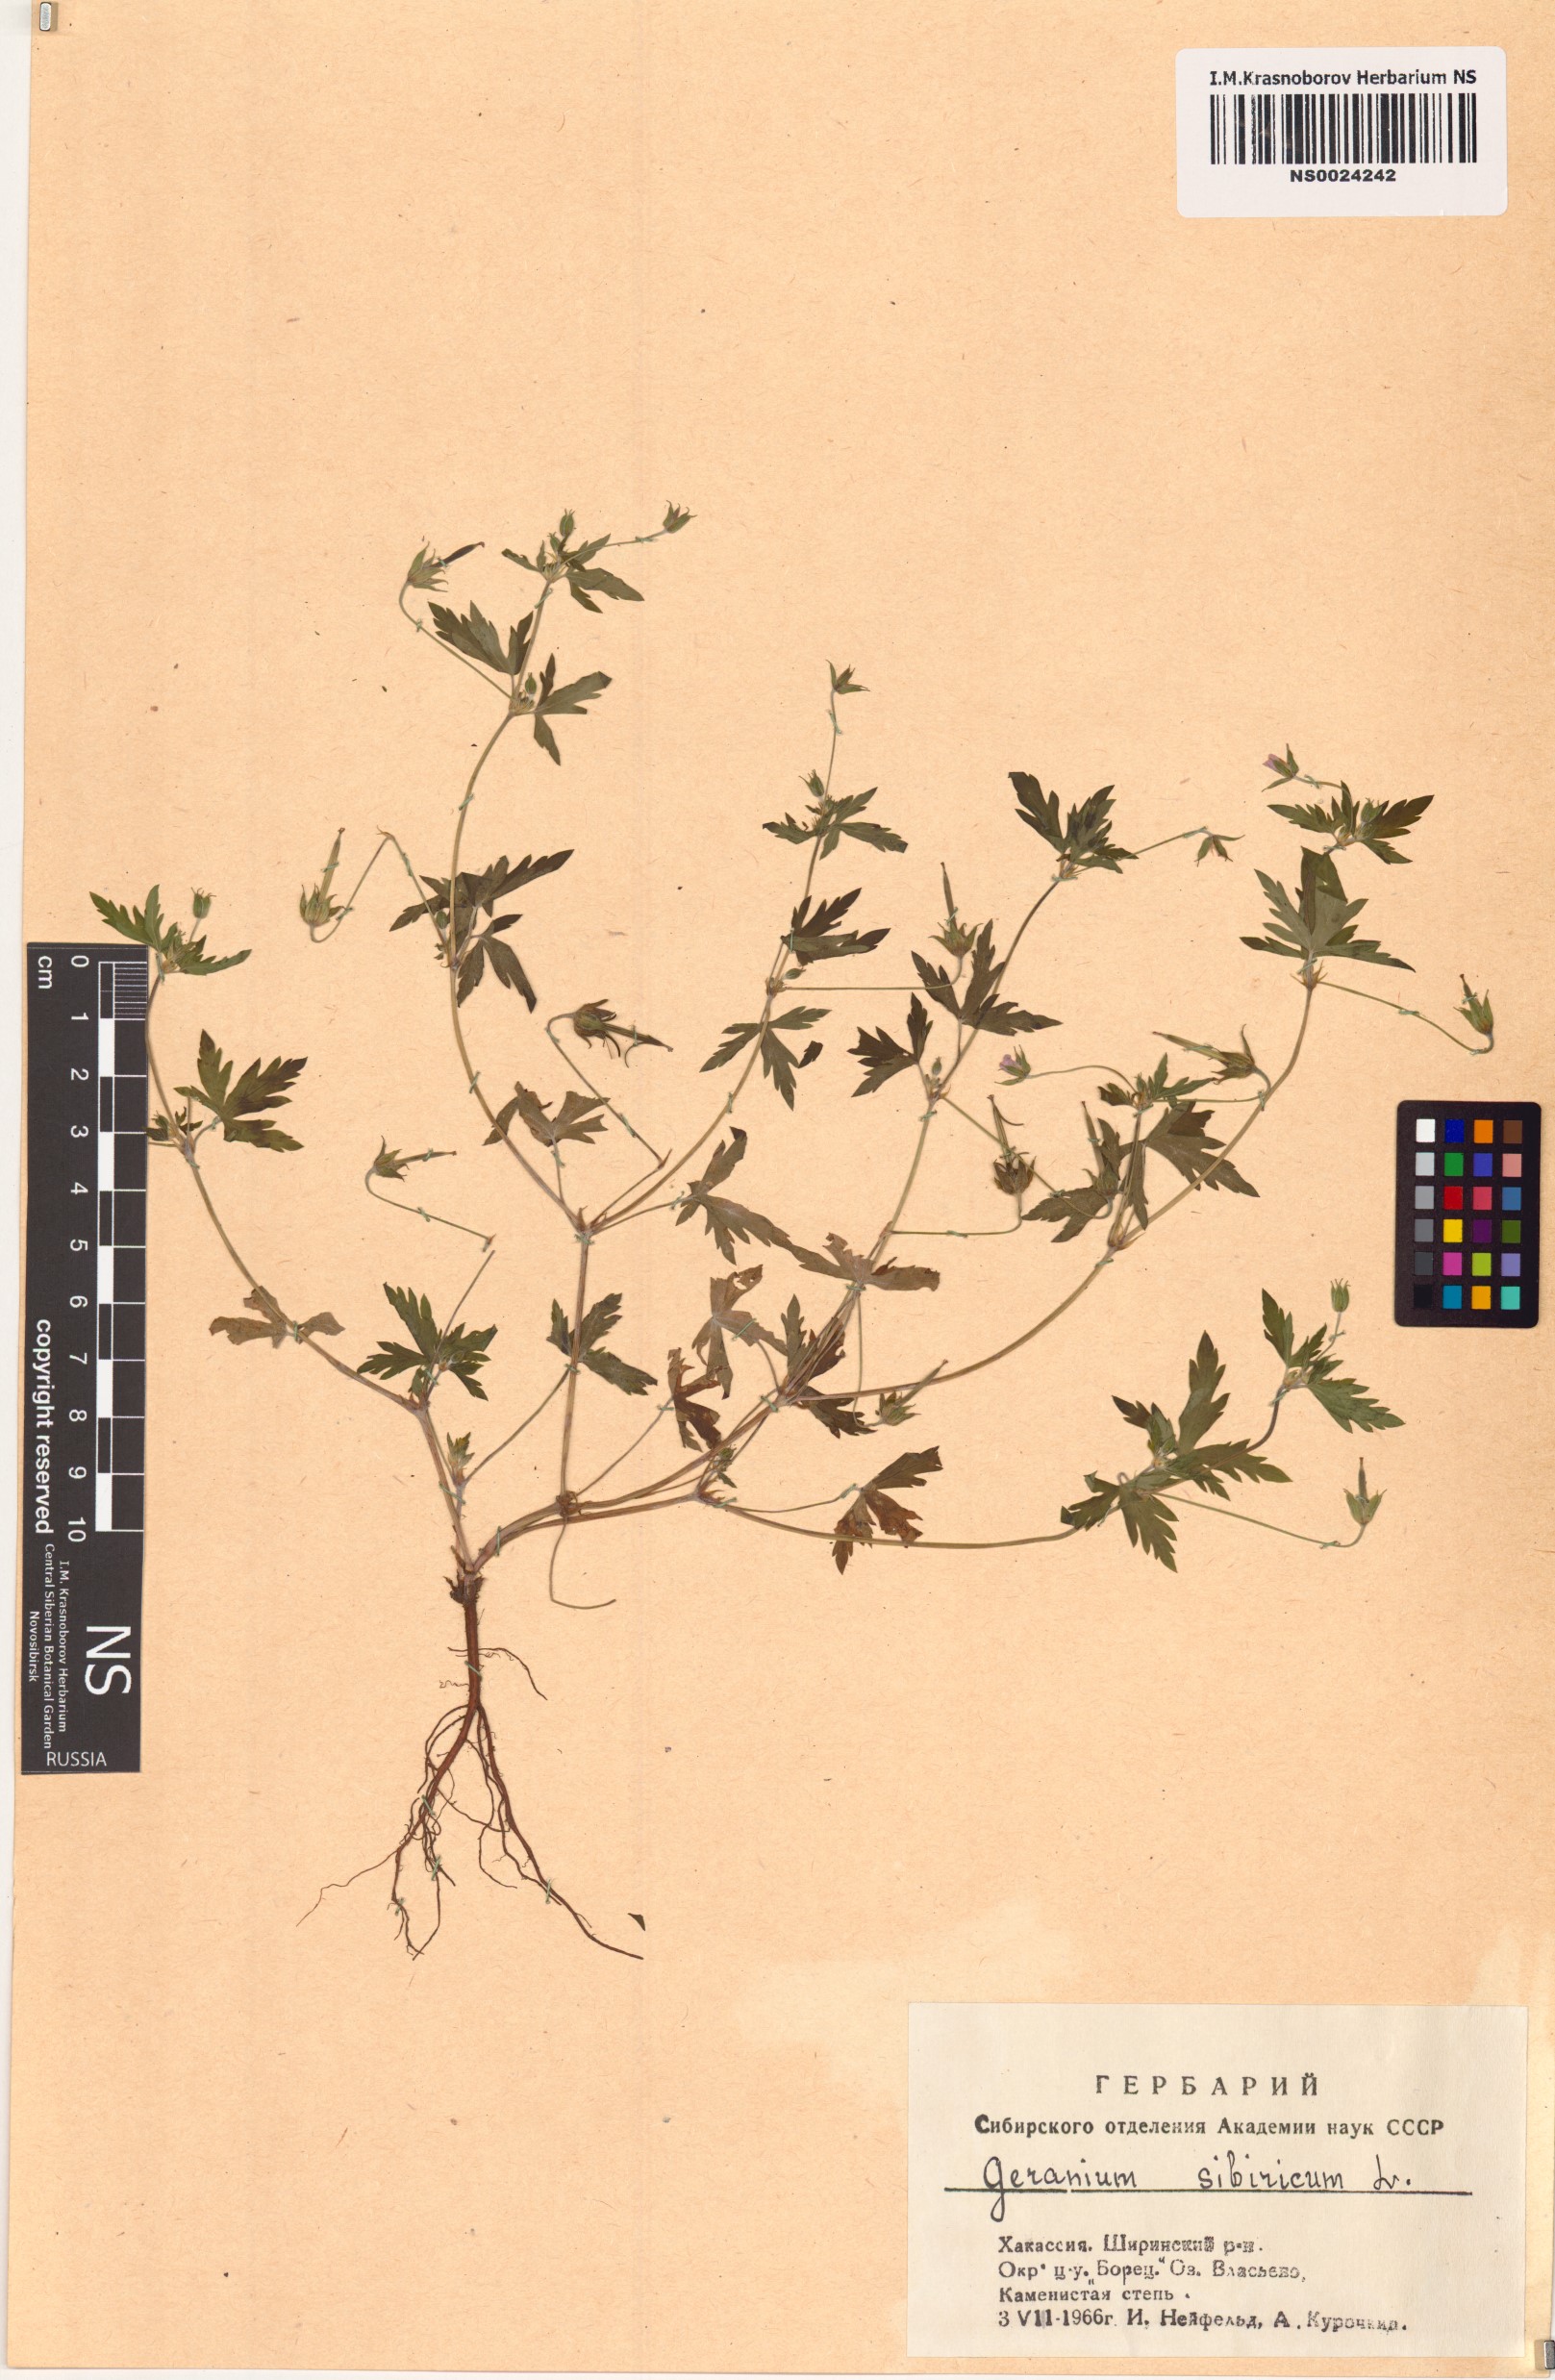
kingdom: Plantae
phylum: Tracheophyta
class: Magnoliopsida
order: Geraniales
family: Geraniaceae
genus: Geranium
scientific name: Geranium sibiricum
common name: Siberian crane's-bill
